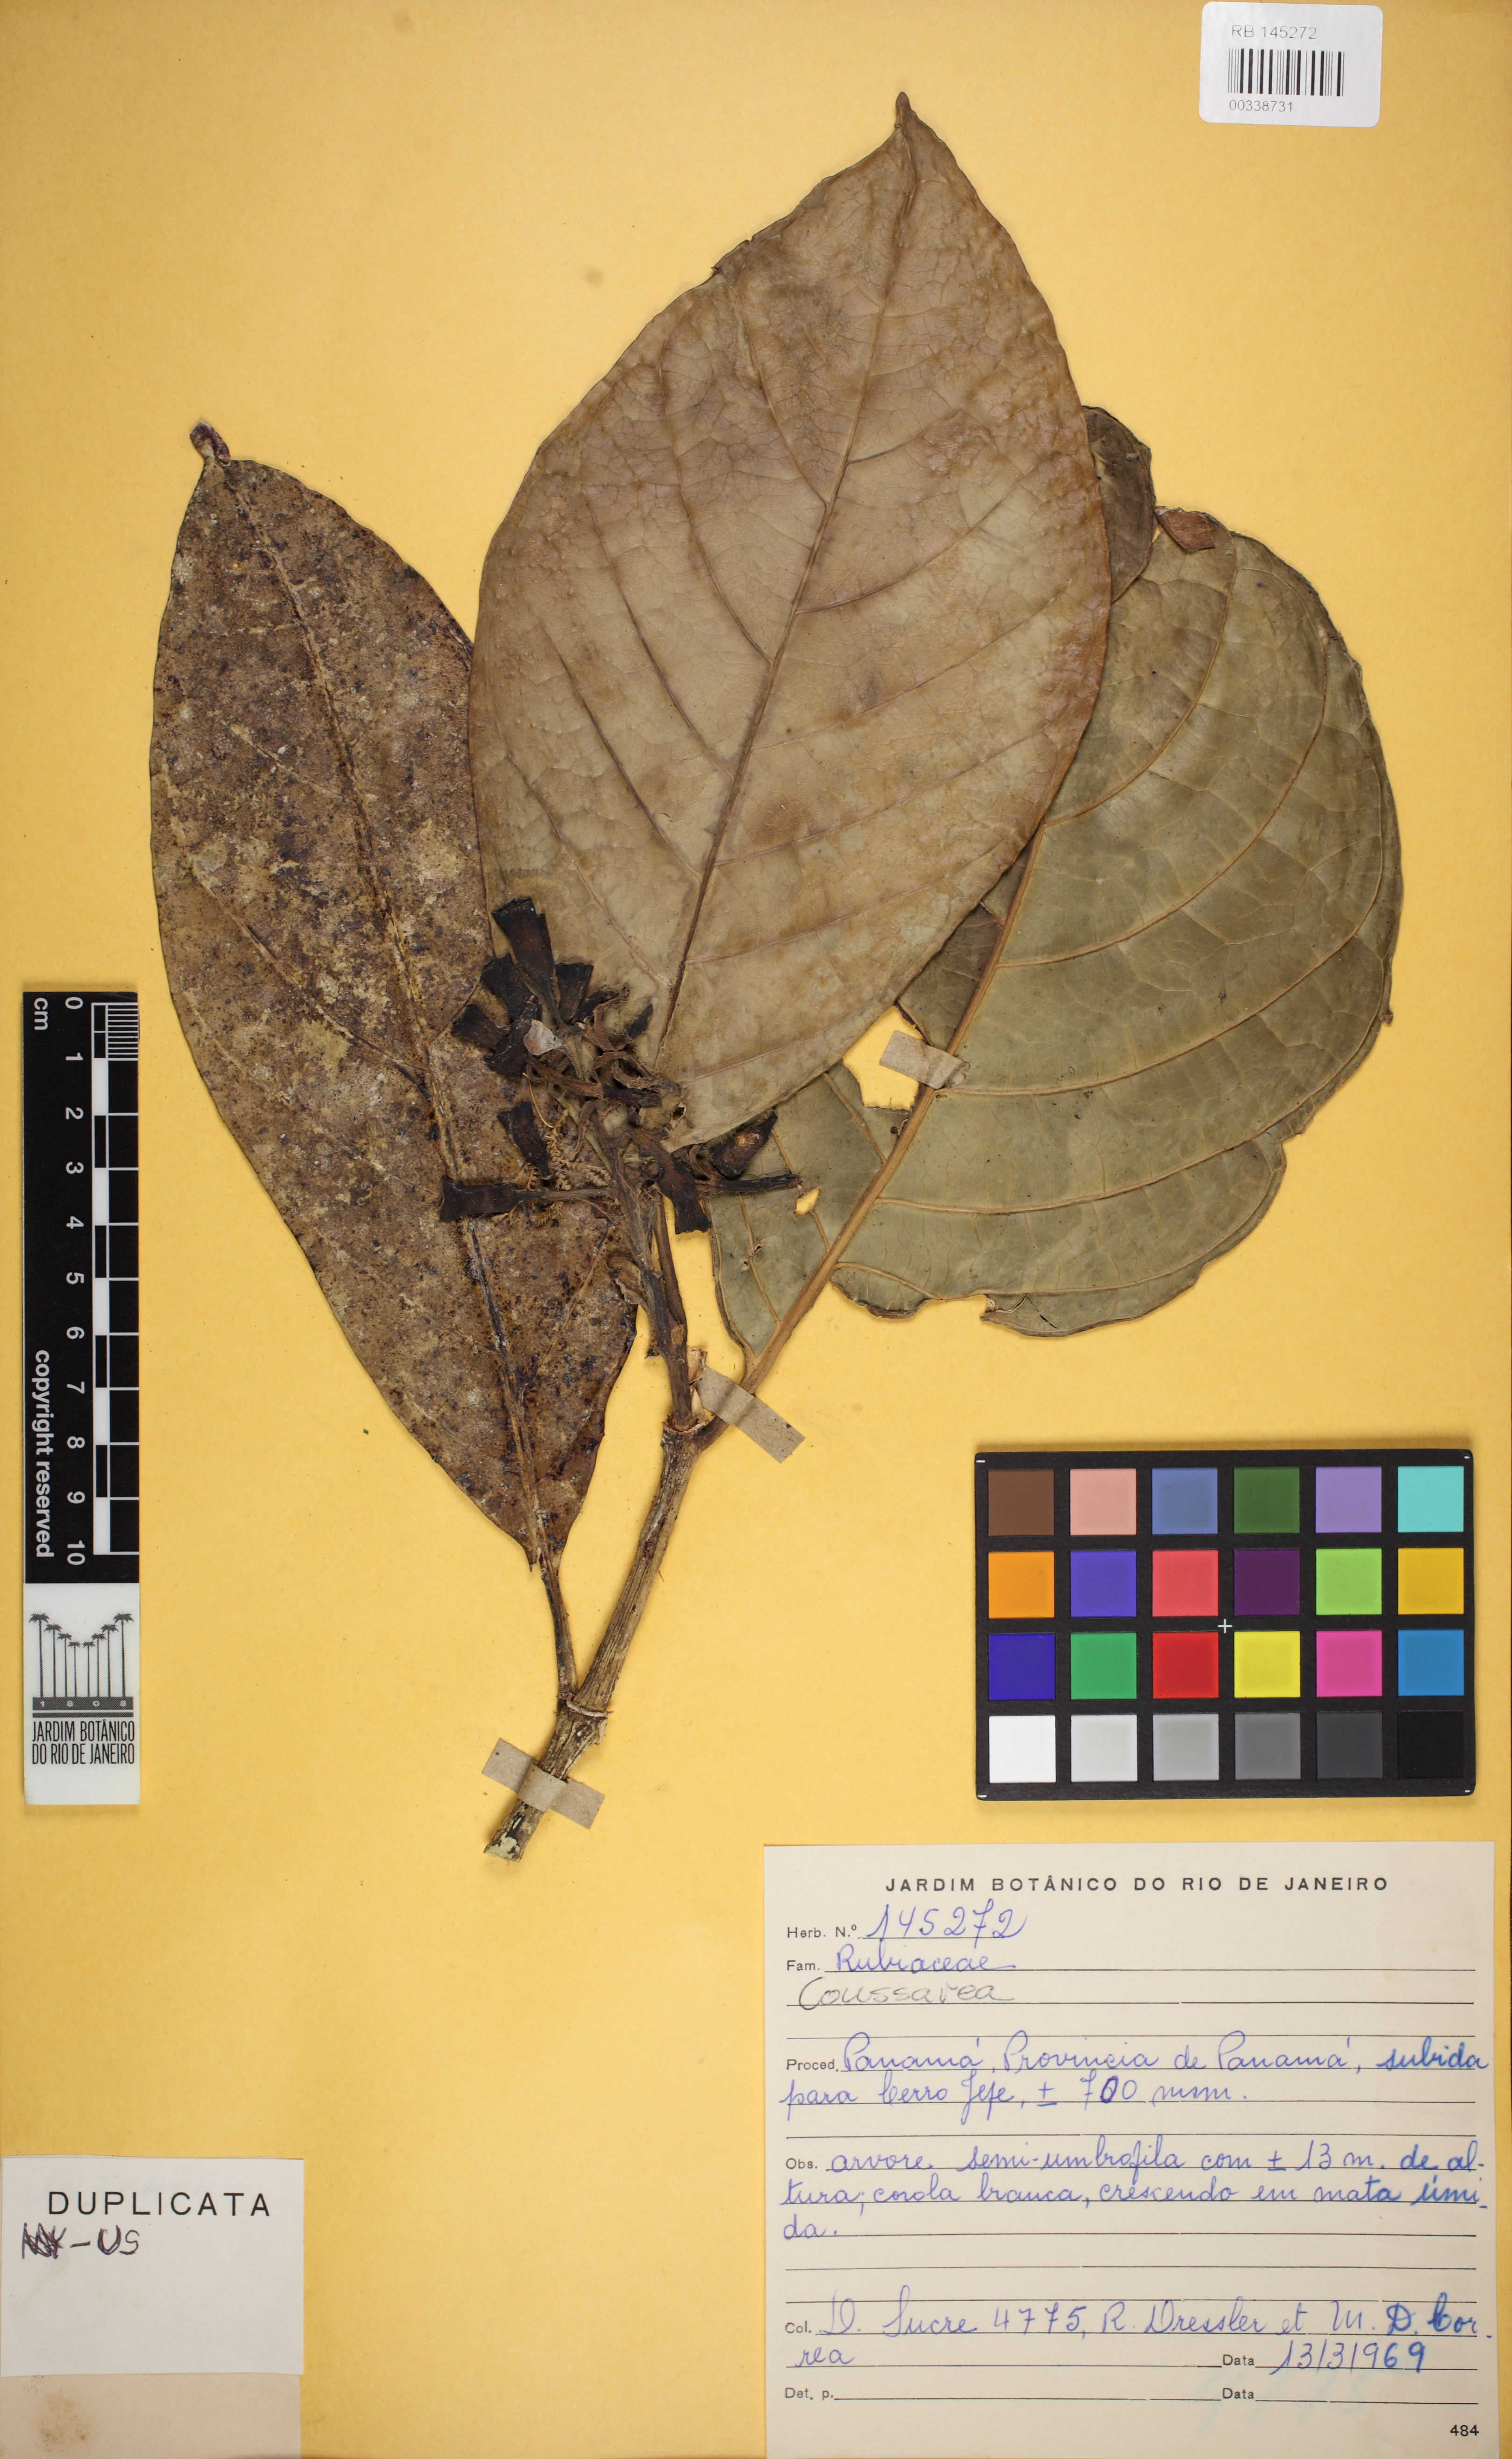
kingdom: Plantae
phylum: Tracheophyta
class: Magnoliopsida
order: Gentianales
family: Rubiaceae
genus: Coussarea
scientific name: Coussarea
